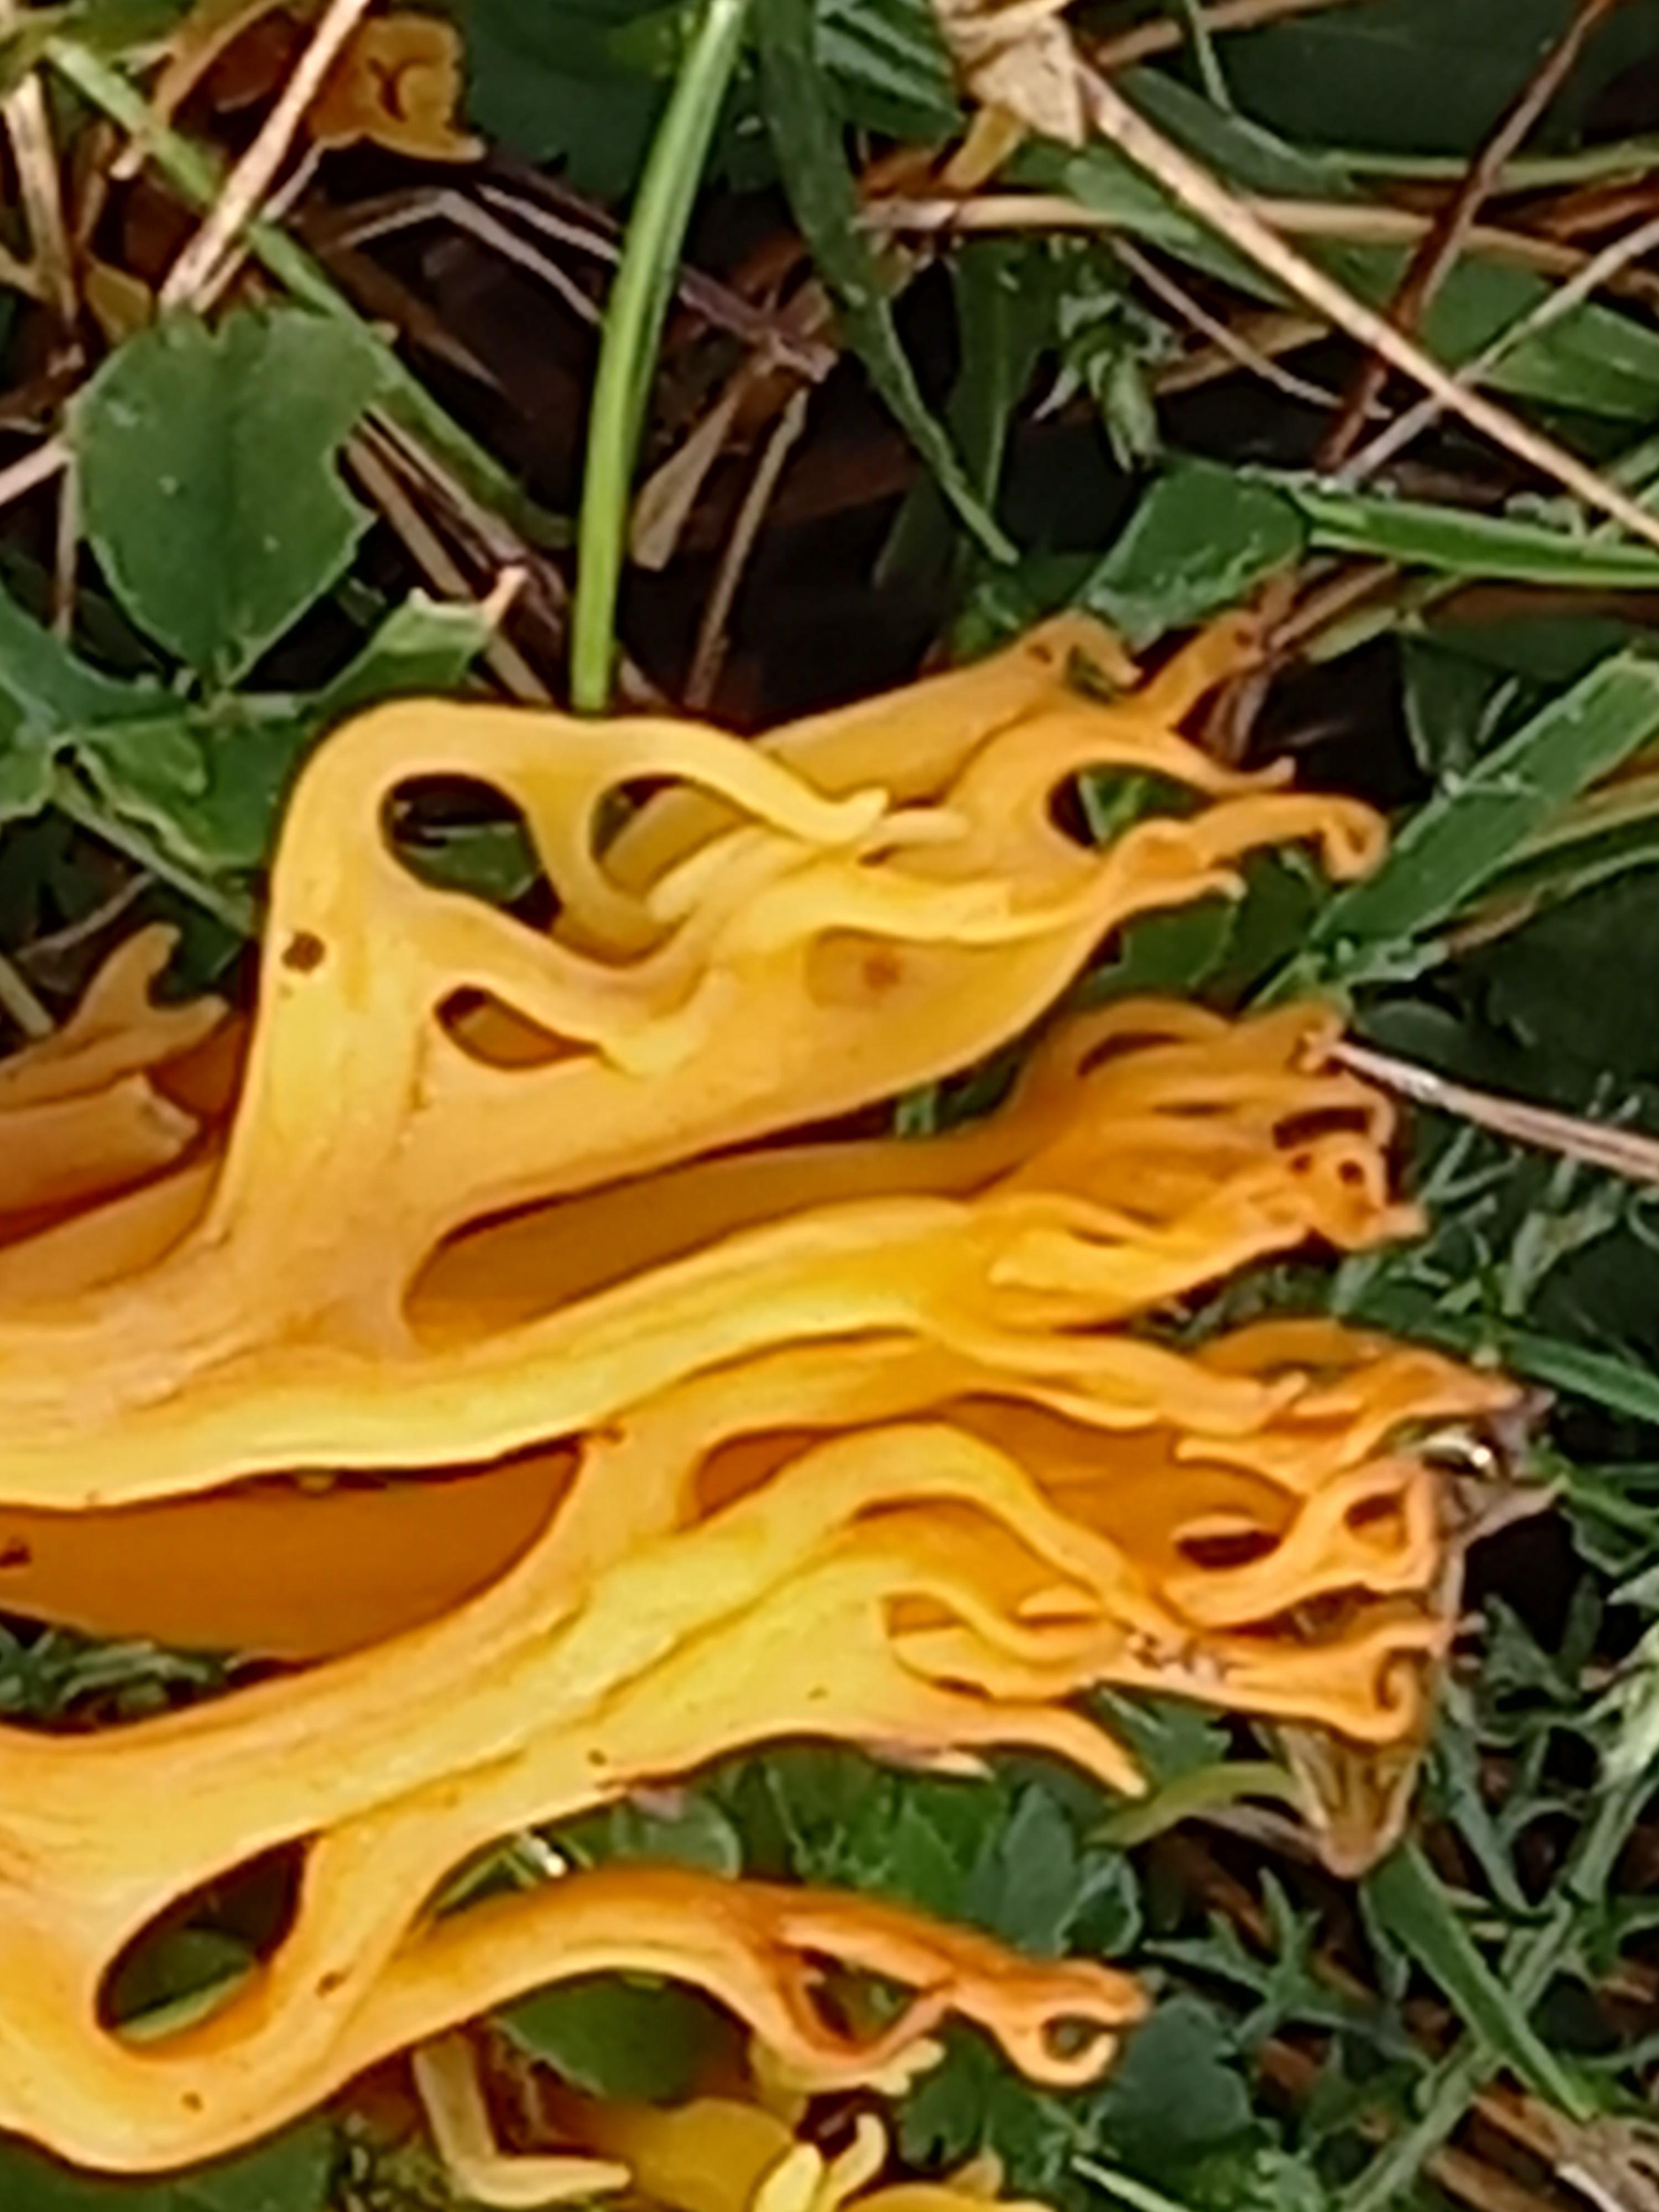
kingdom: Fungi
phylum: Basidiomycota
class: Agaricomycetes
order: Agaricales
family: Clavariaceae
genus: Clavulinopsis
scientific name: Clavulinopsis corniculata
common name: eng-køllesvamp
